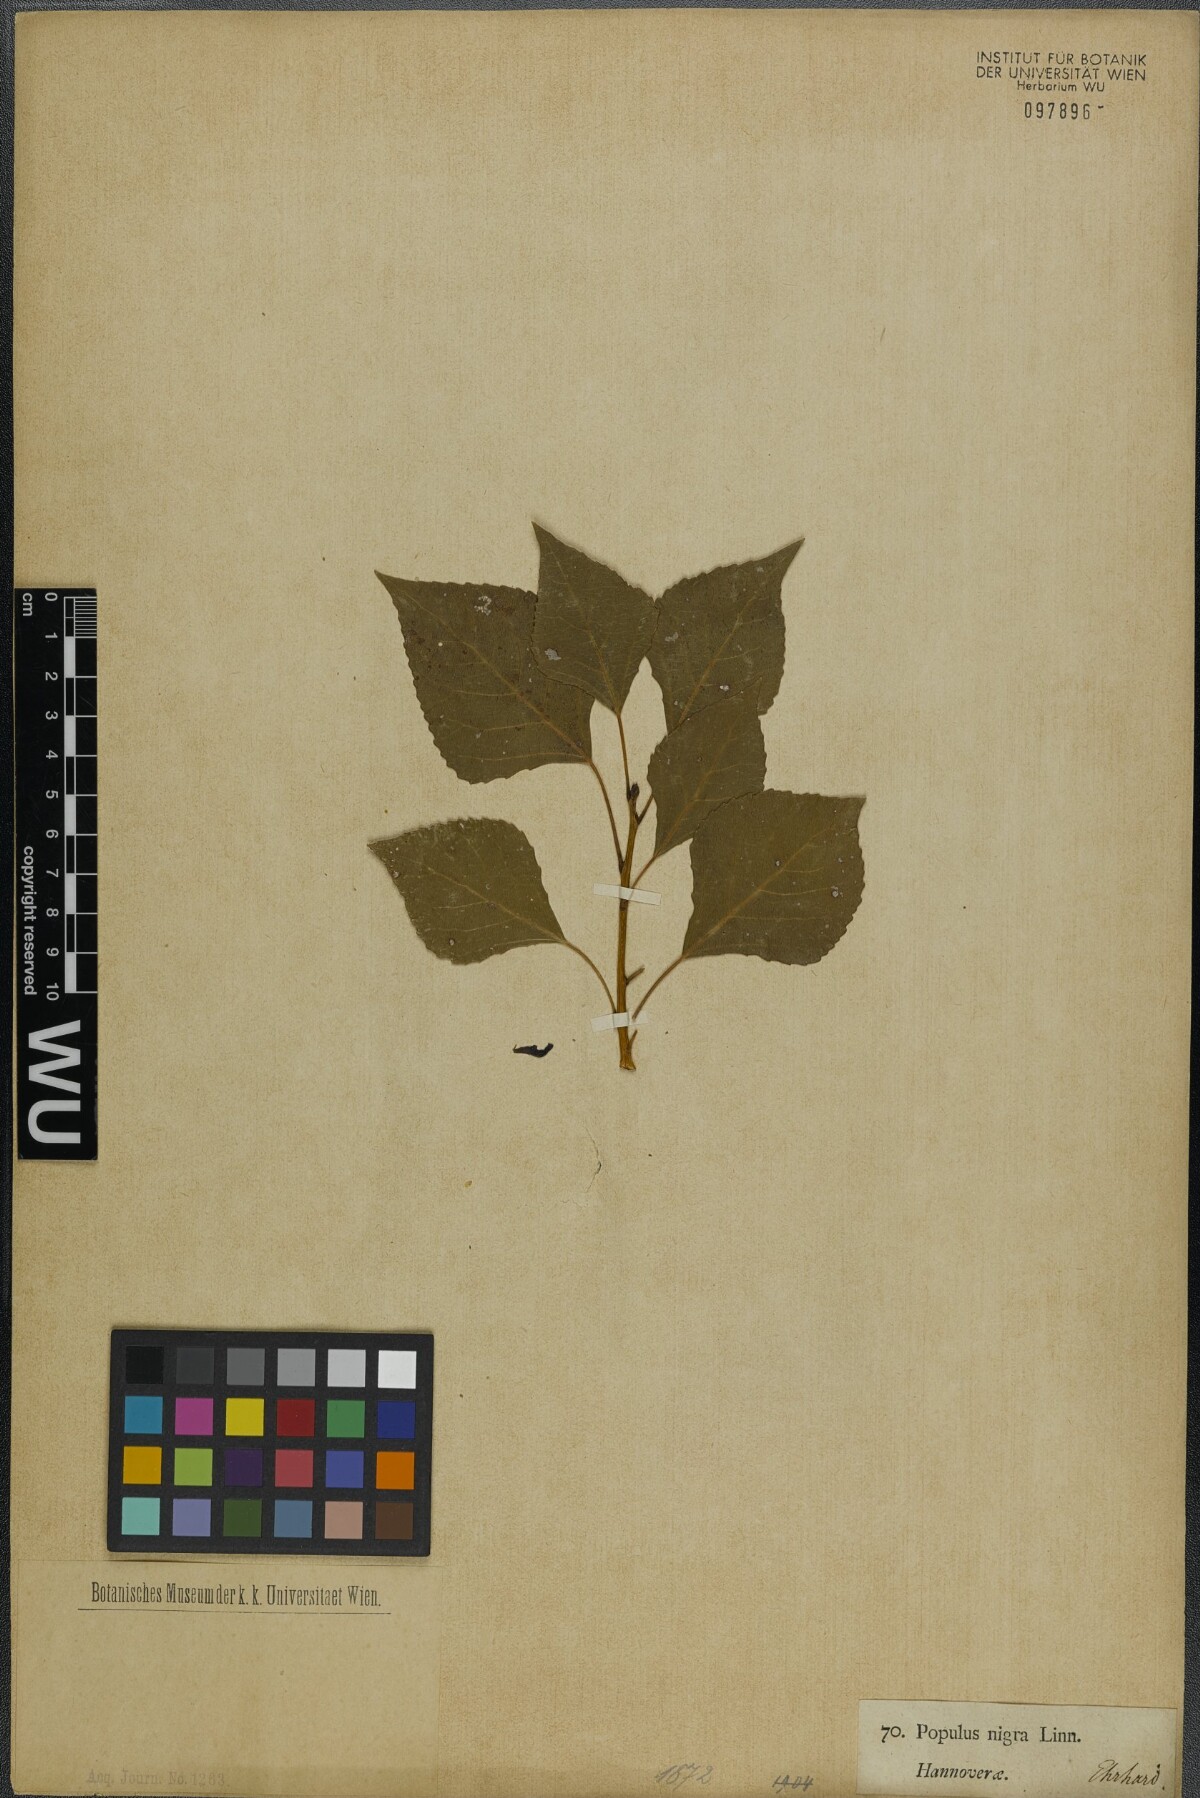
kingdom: Plantae
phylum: Tracheophyta
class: Magnoliopsida
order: Malpighiales
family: Salicaceae
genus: Populus
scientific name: Populus nigra
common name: Black poplar
